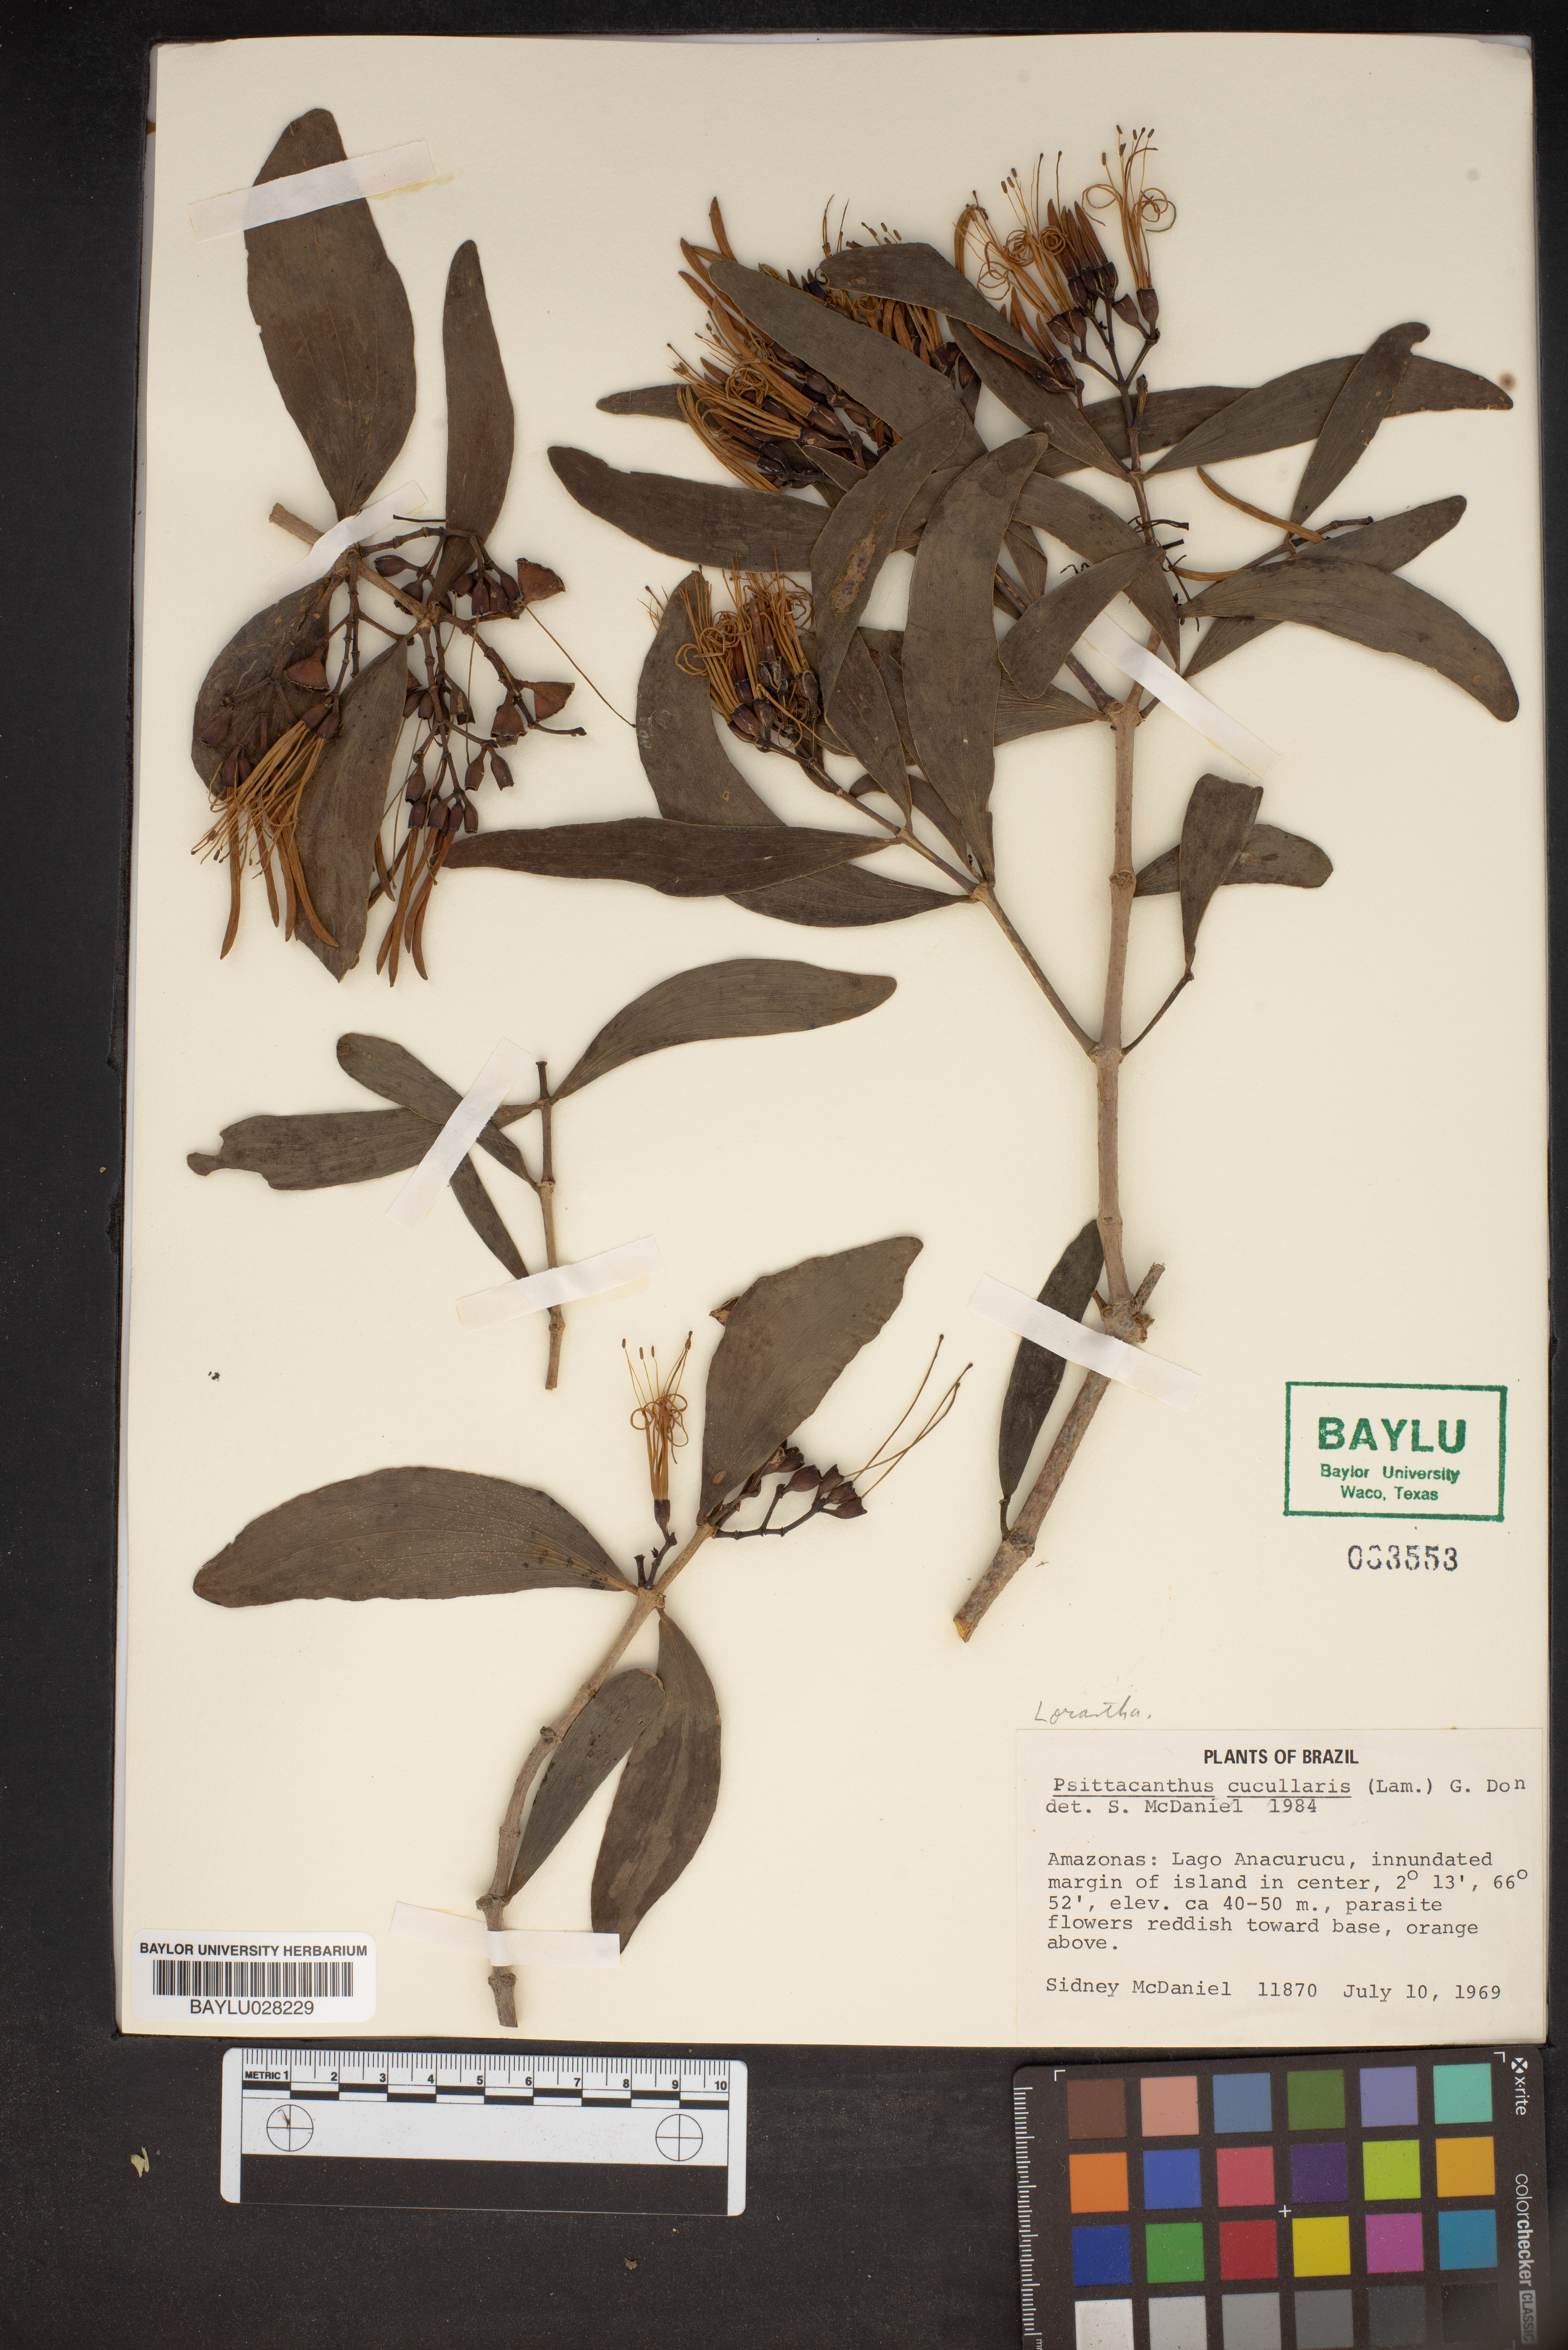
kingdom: Plantae
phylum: Tracheophyta
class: Magnoliopsida
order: Santalales
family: Loranthaceae
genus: Psittacanthus
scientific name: Psittacanthus cucullaris
